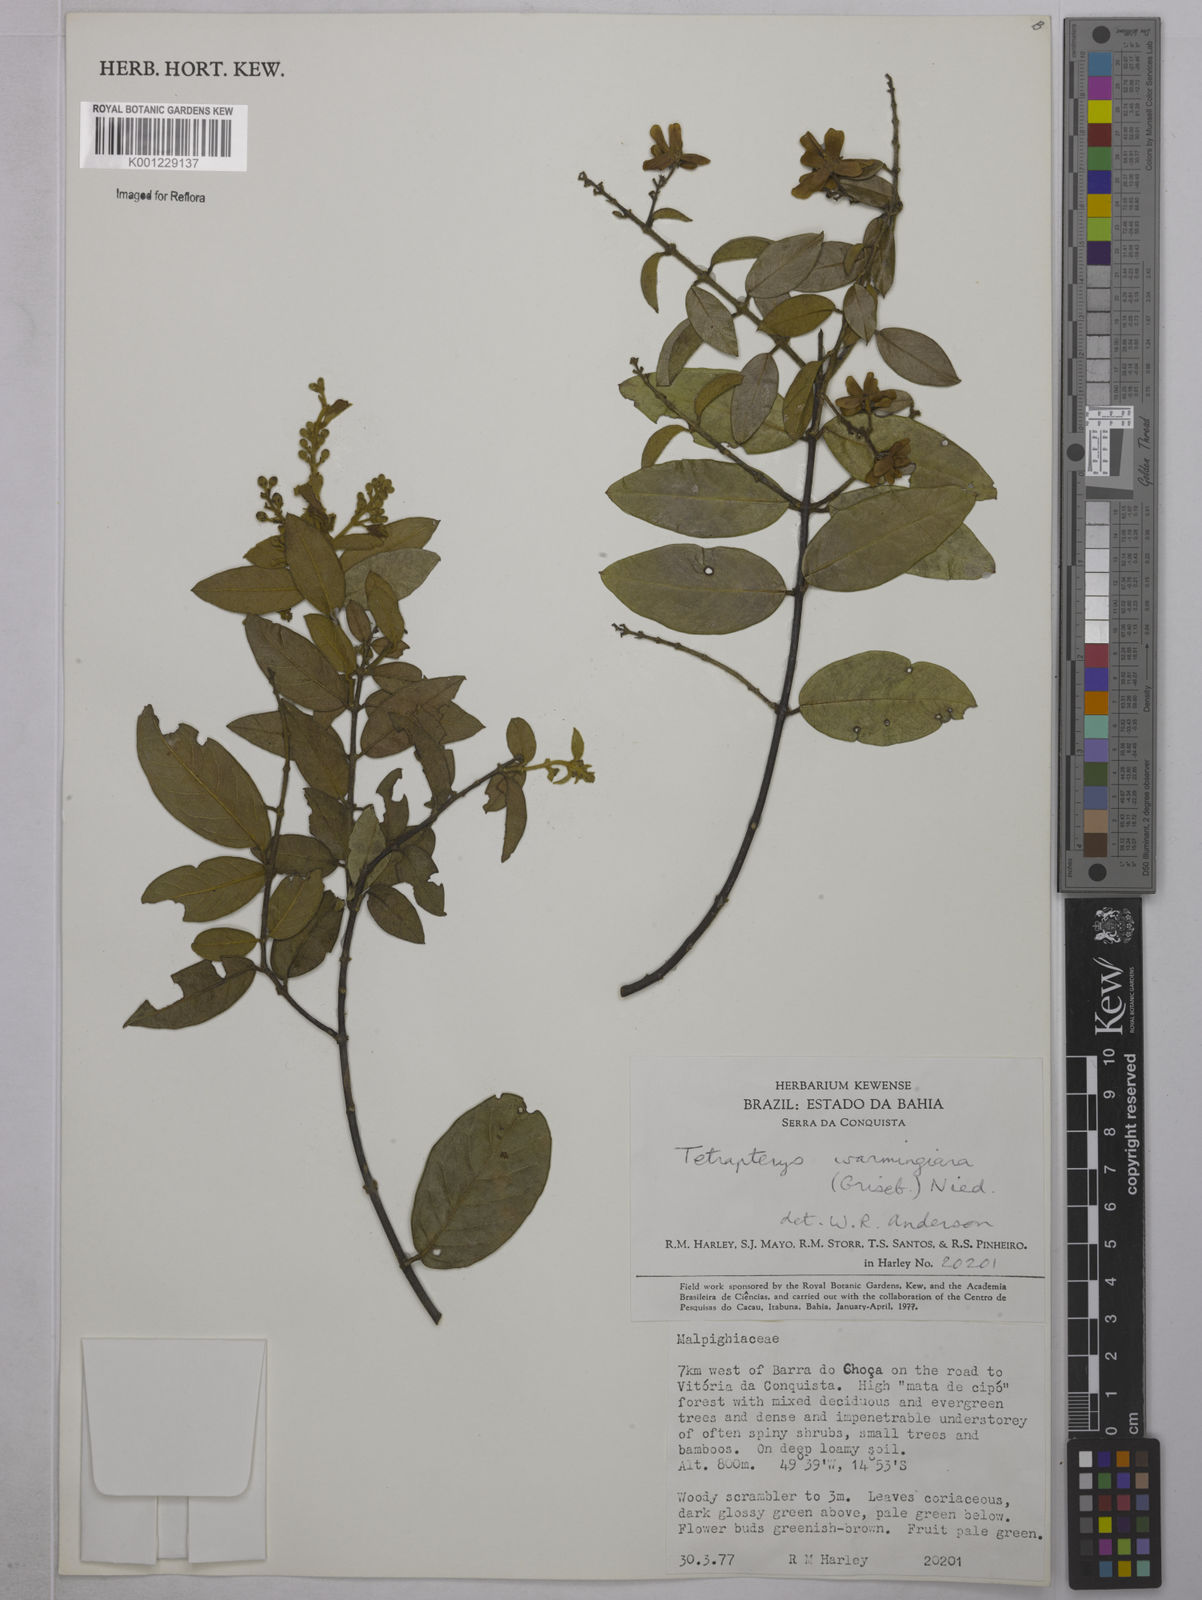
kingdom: Plantae
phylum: Tracheophyta
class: Magnoliopsida
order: Malpighiales
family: Malpighiaceae
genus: Niedenzuella
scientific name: Niedenzuella warmingiana
